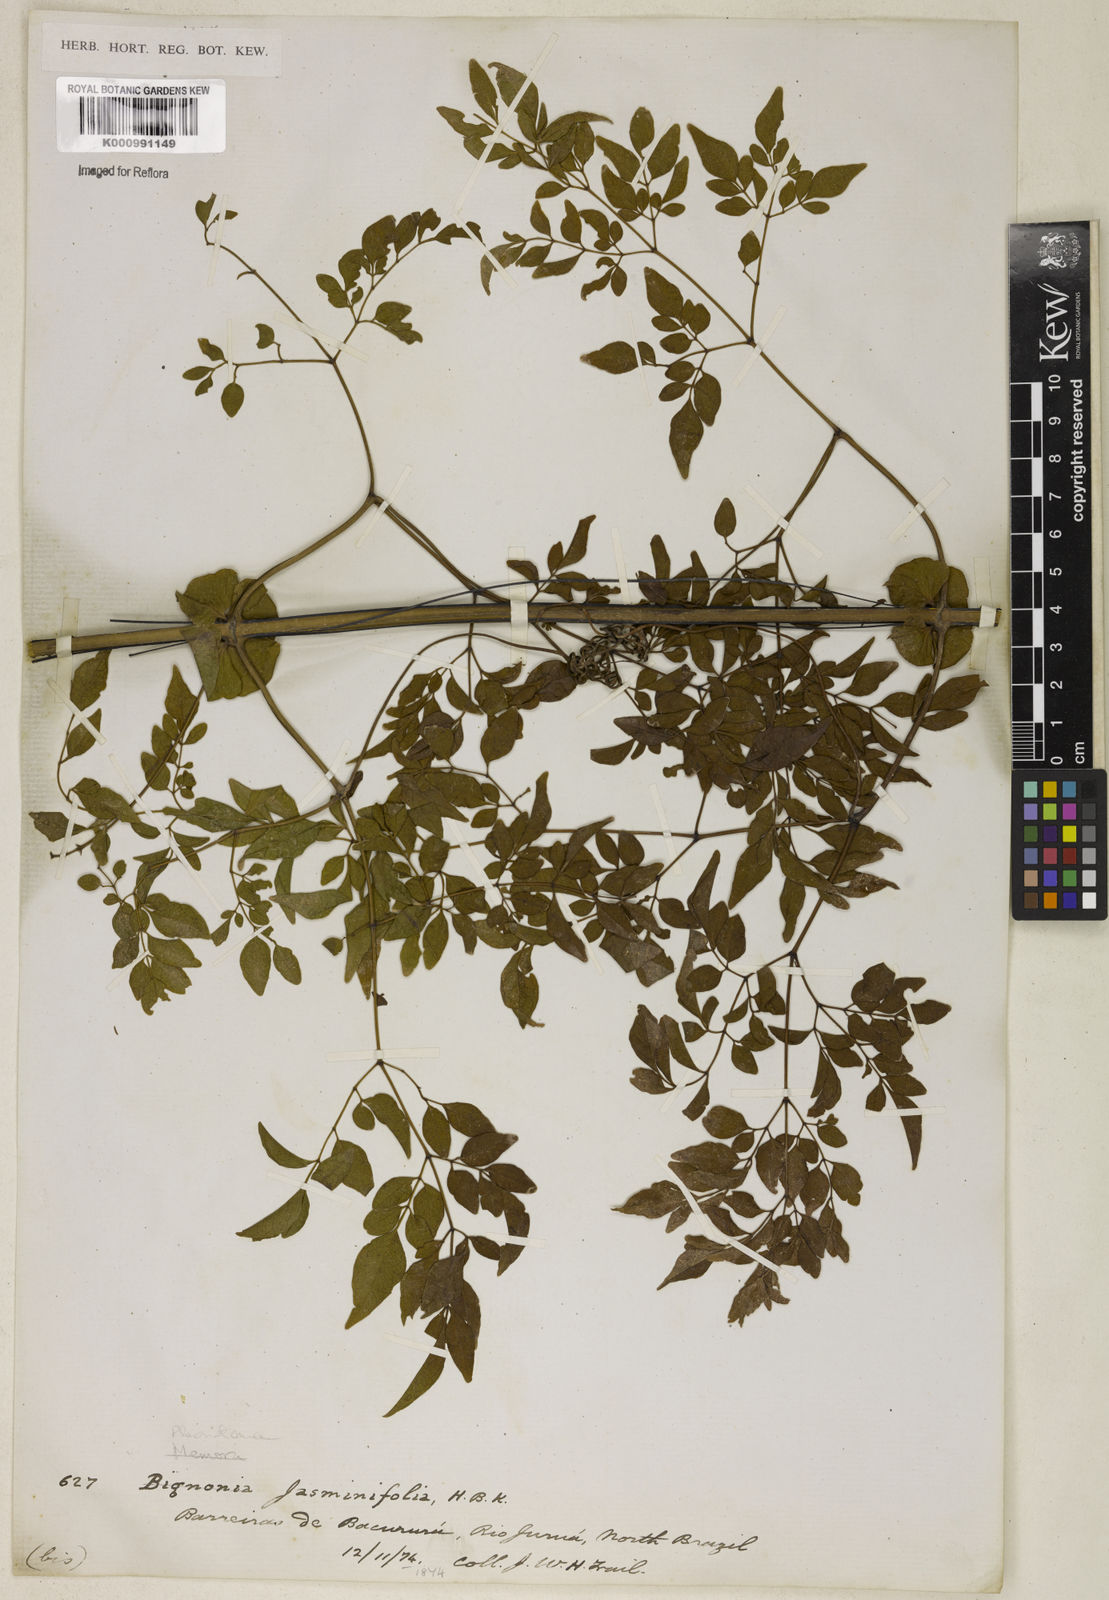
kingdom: Plantae
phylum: Tracheophyta
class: Magnoliopsida
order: Lamiales
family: Bignoniaceae
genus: Pleonotoma
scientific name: Pleonotoma jasminifolia
